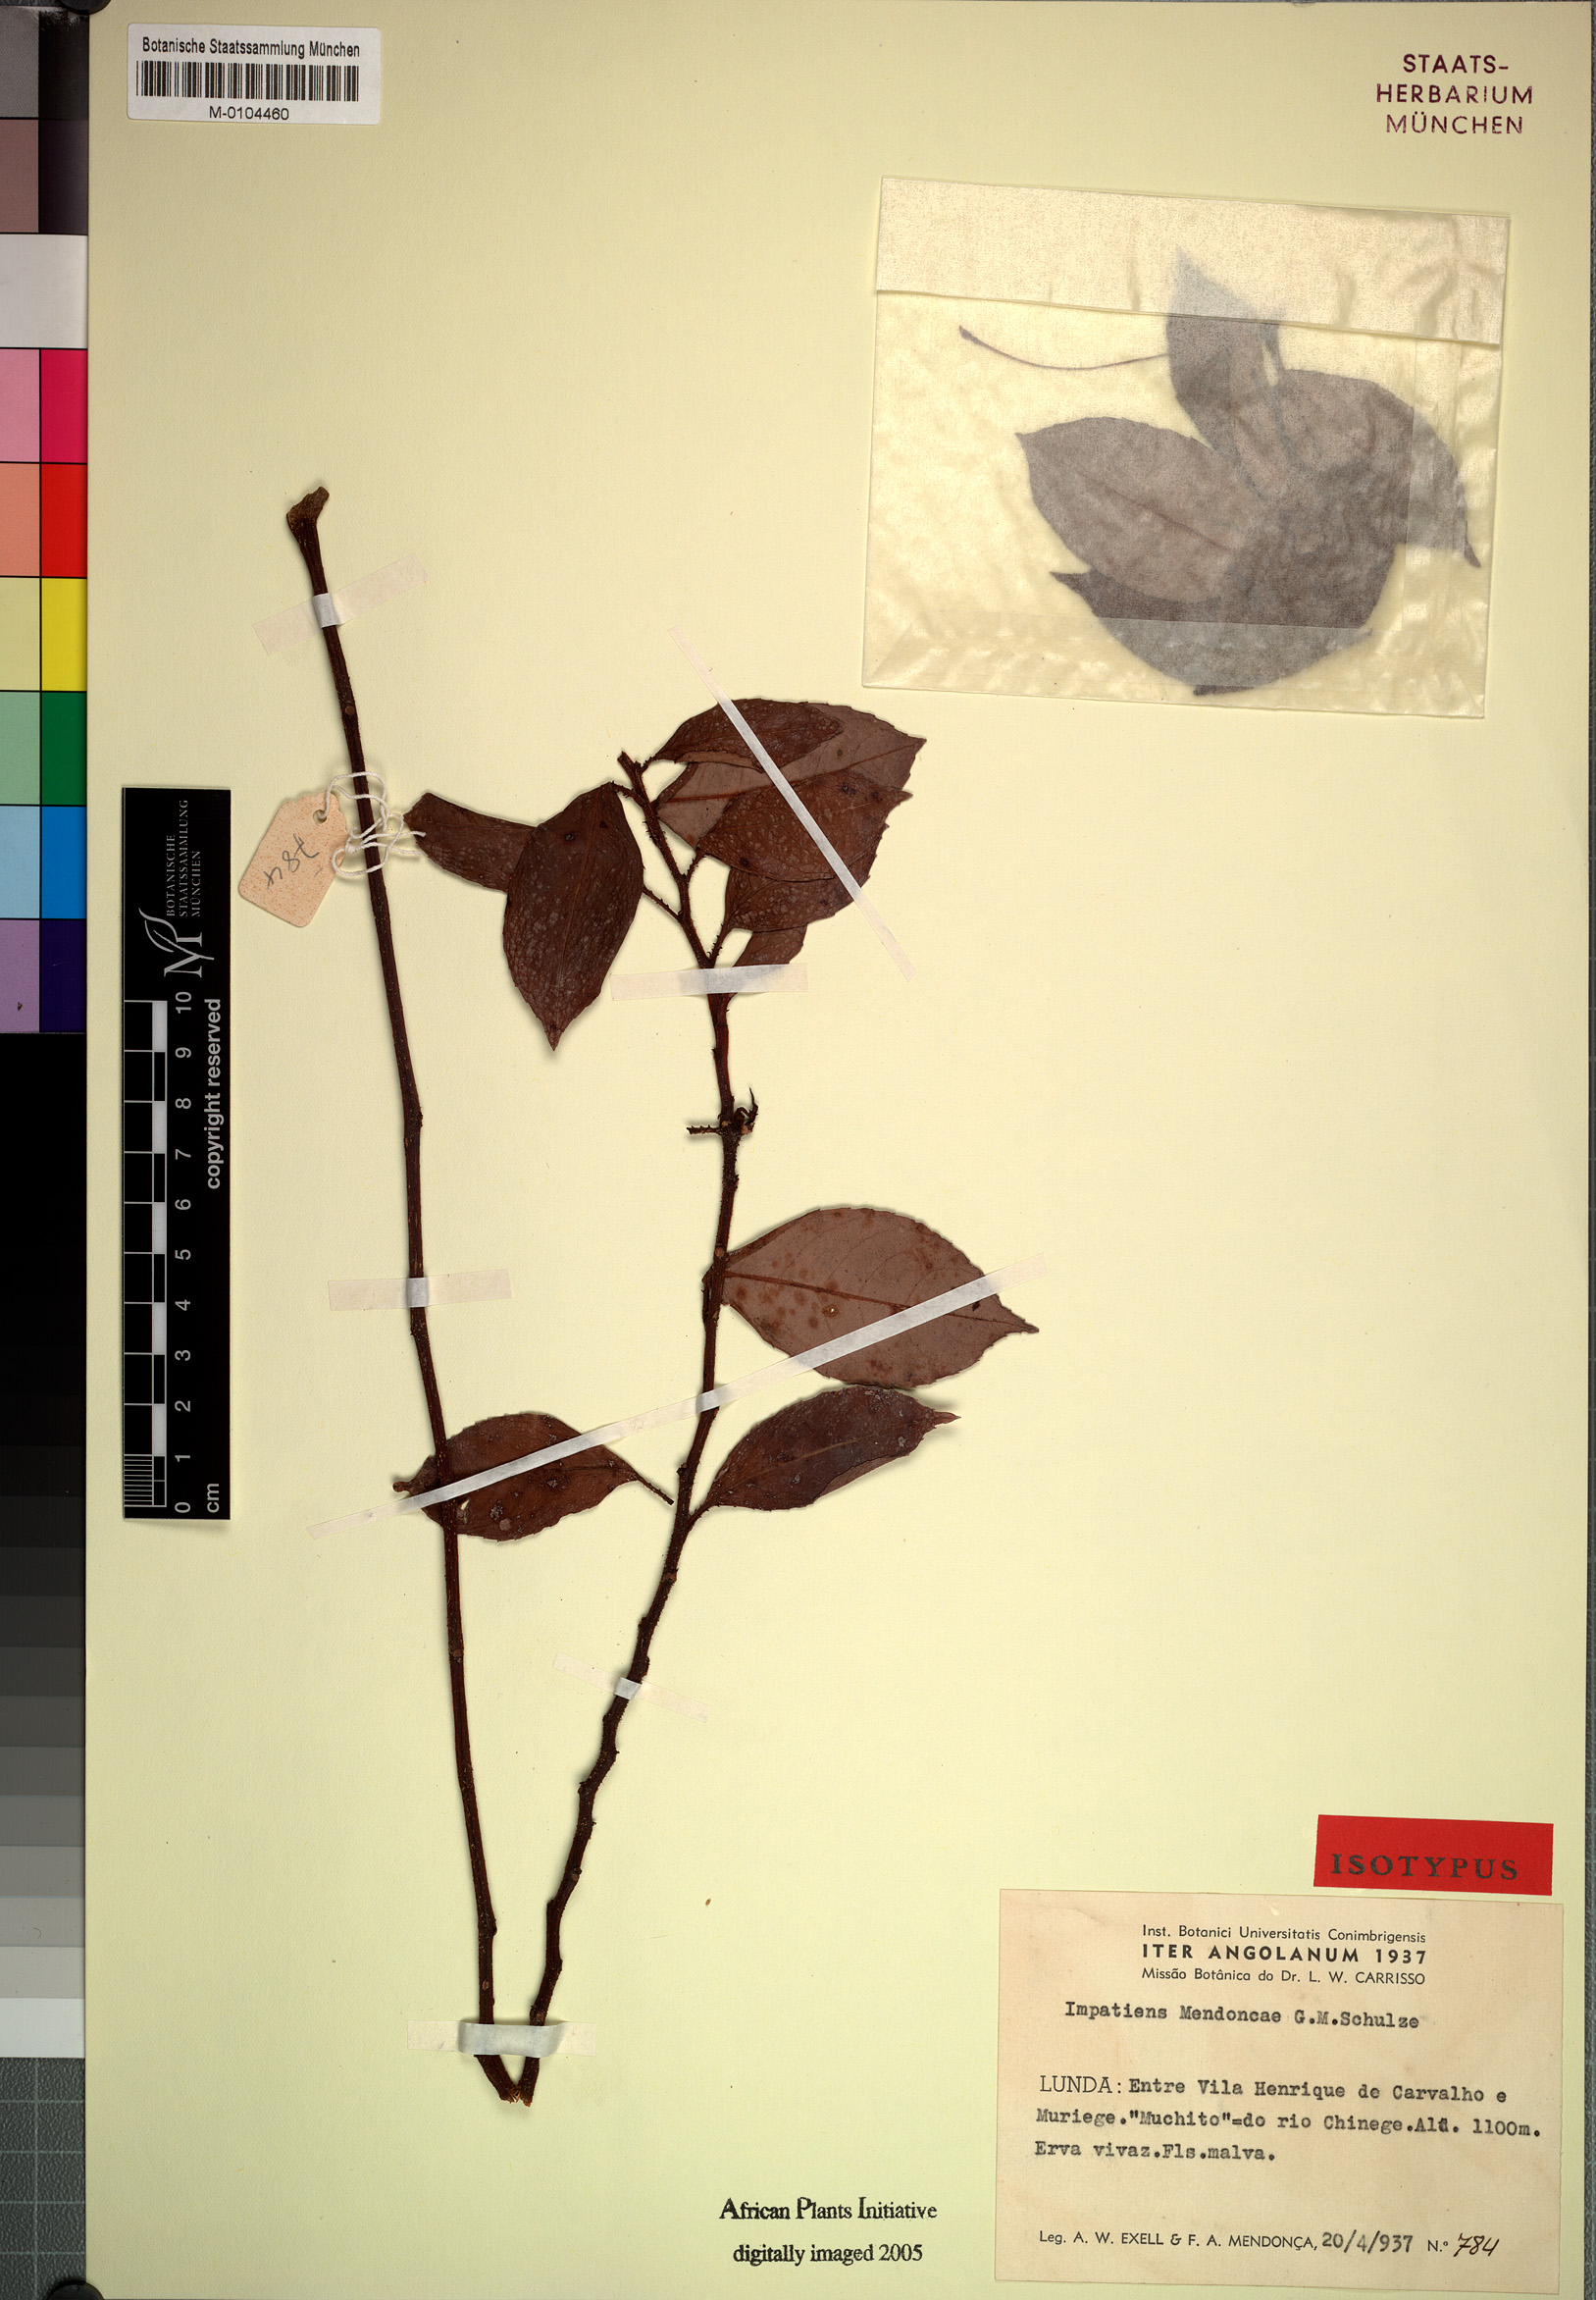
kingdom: Plantae
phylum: Tracheophyta
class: Magnoliopsida
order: Ericales
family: Balsaminaceae
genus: Impatiens
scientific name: Impatiens mendoncae
